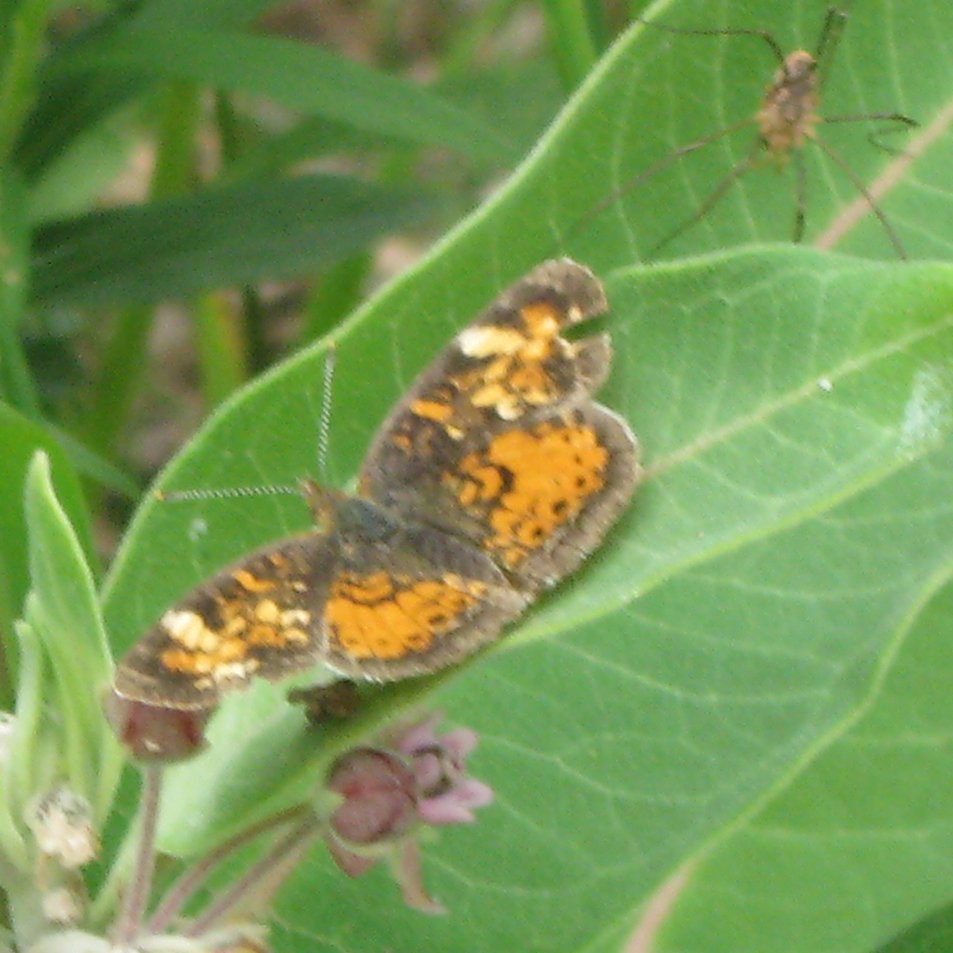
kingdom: Animalia
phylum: Arthropoda
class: Insecta
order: Lepidoptera
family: Nymphalidae
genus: Phyciodes
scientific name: Phyciodes tharos
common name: Northern Crescent
